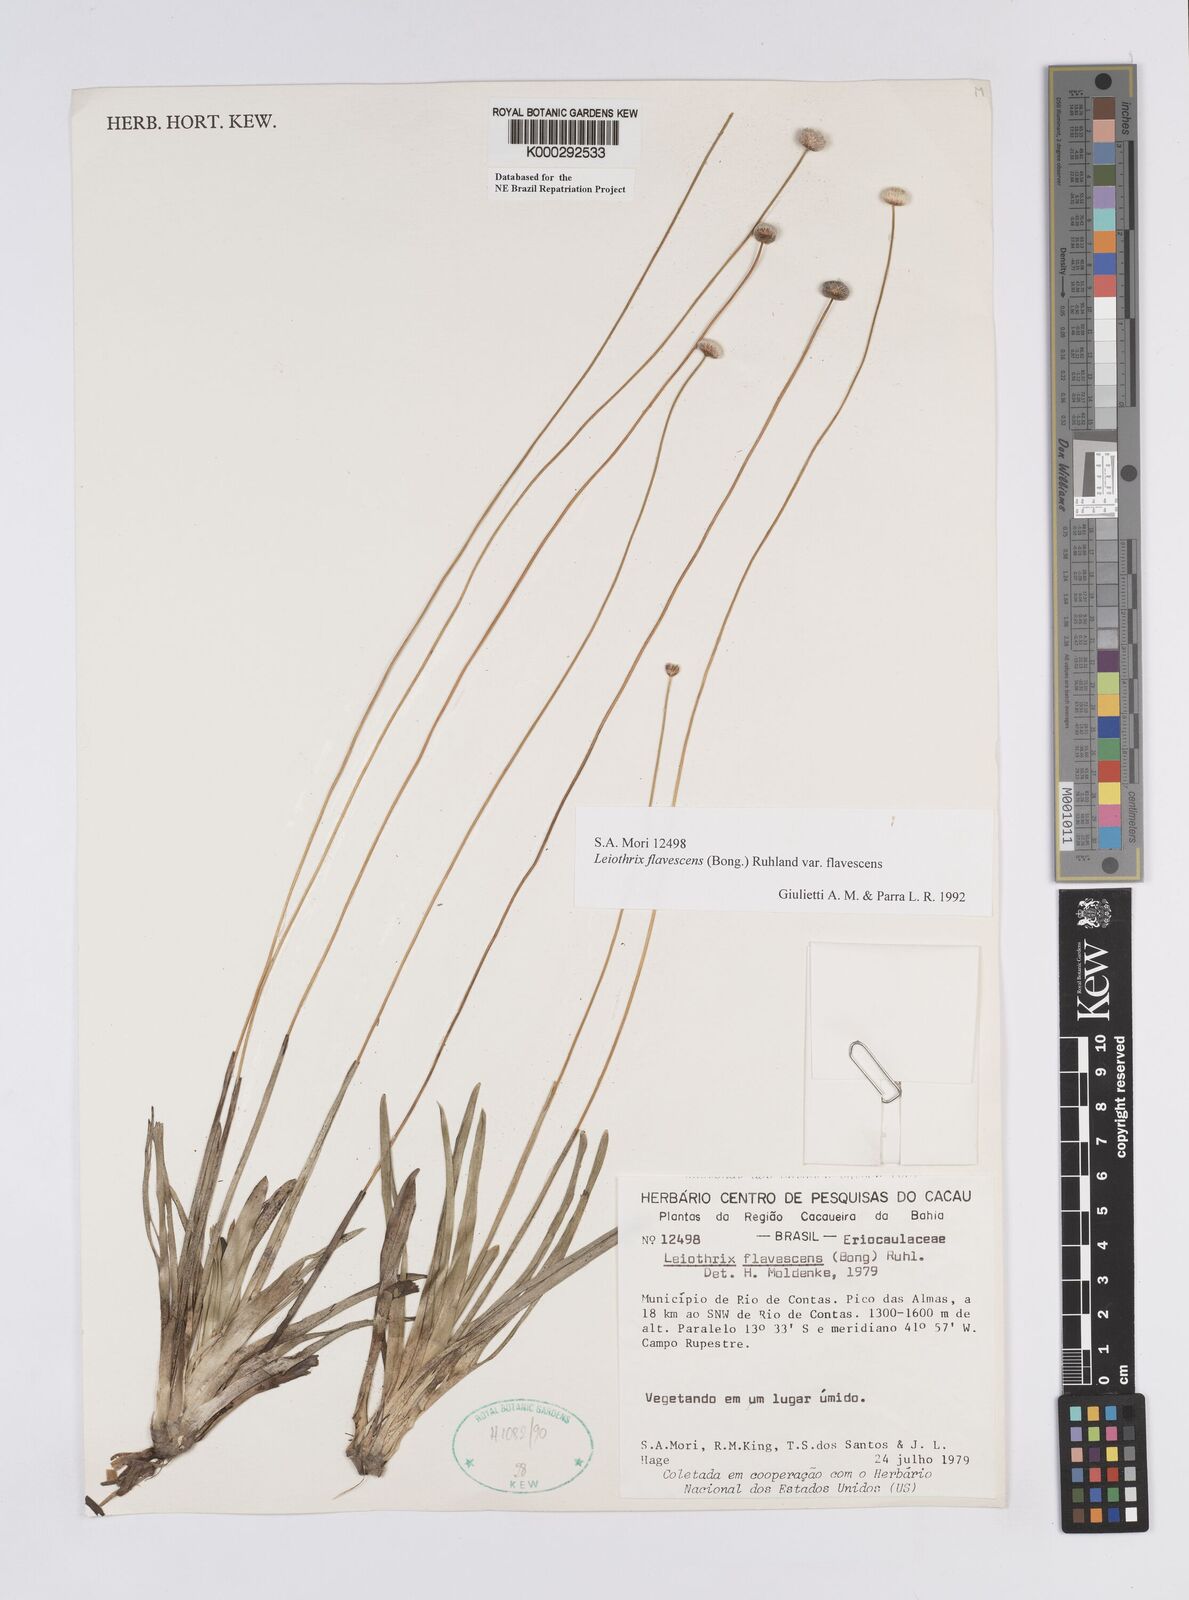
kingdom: Plantae
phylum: Tracheophyta
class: Liliopsida
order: Poales
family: Eriocaulaceae
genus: Leiothrix
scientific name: Leiothrix flavescens
